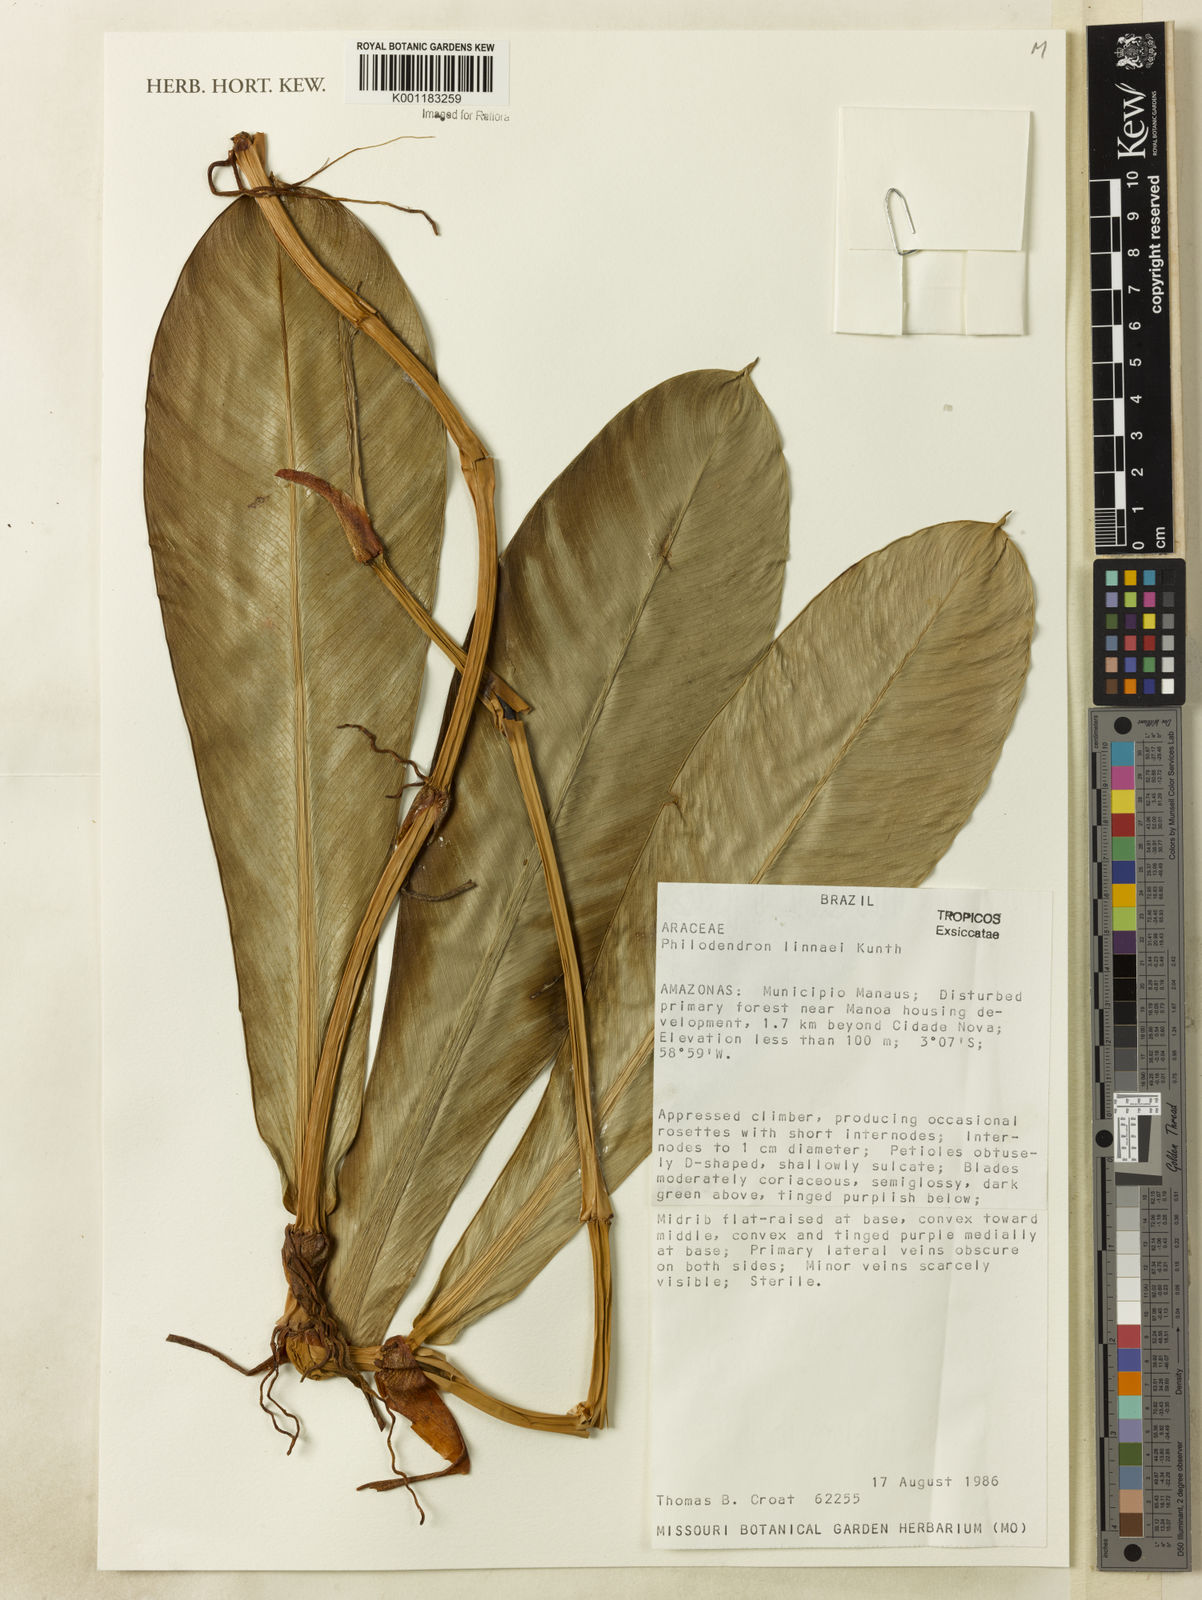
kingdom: Plantae
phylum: Tracheophyta
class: Liliopsida
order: Alismatales
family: Araceae
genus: Philodendron
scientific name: Philodendron linnaei
